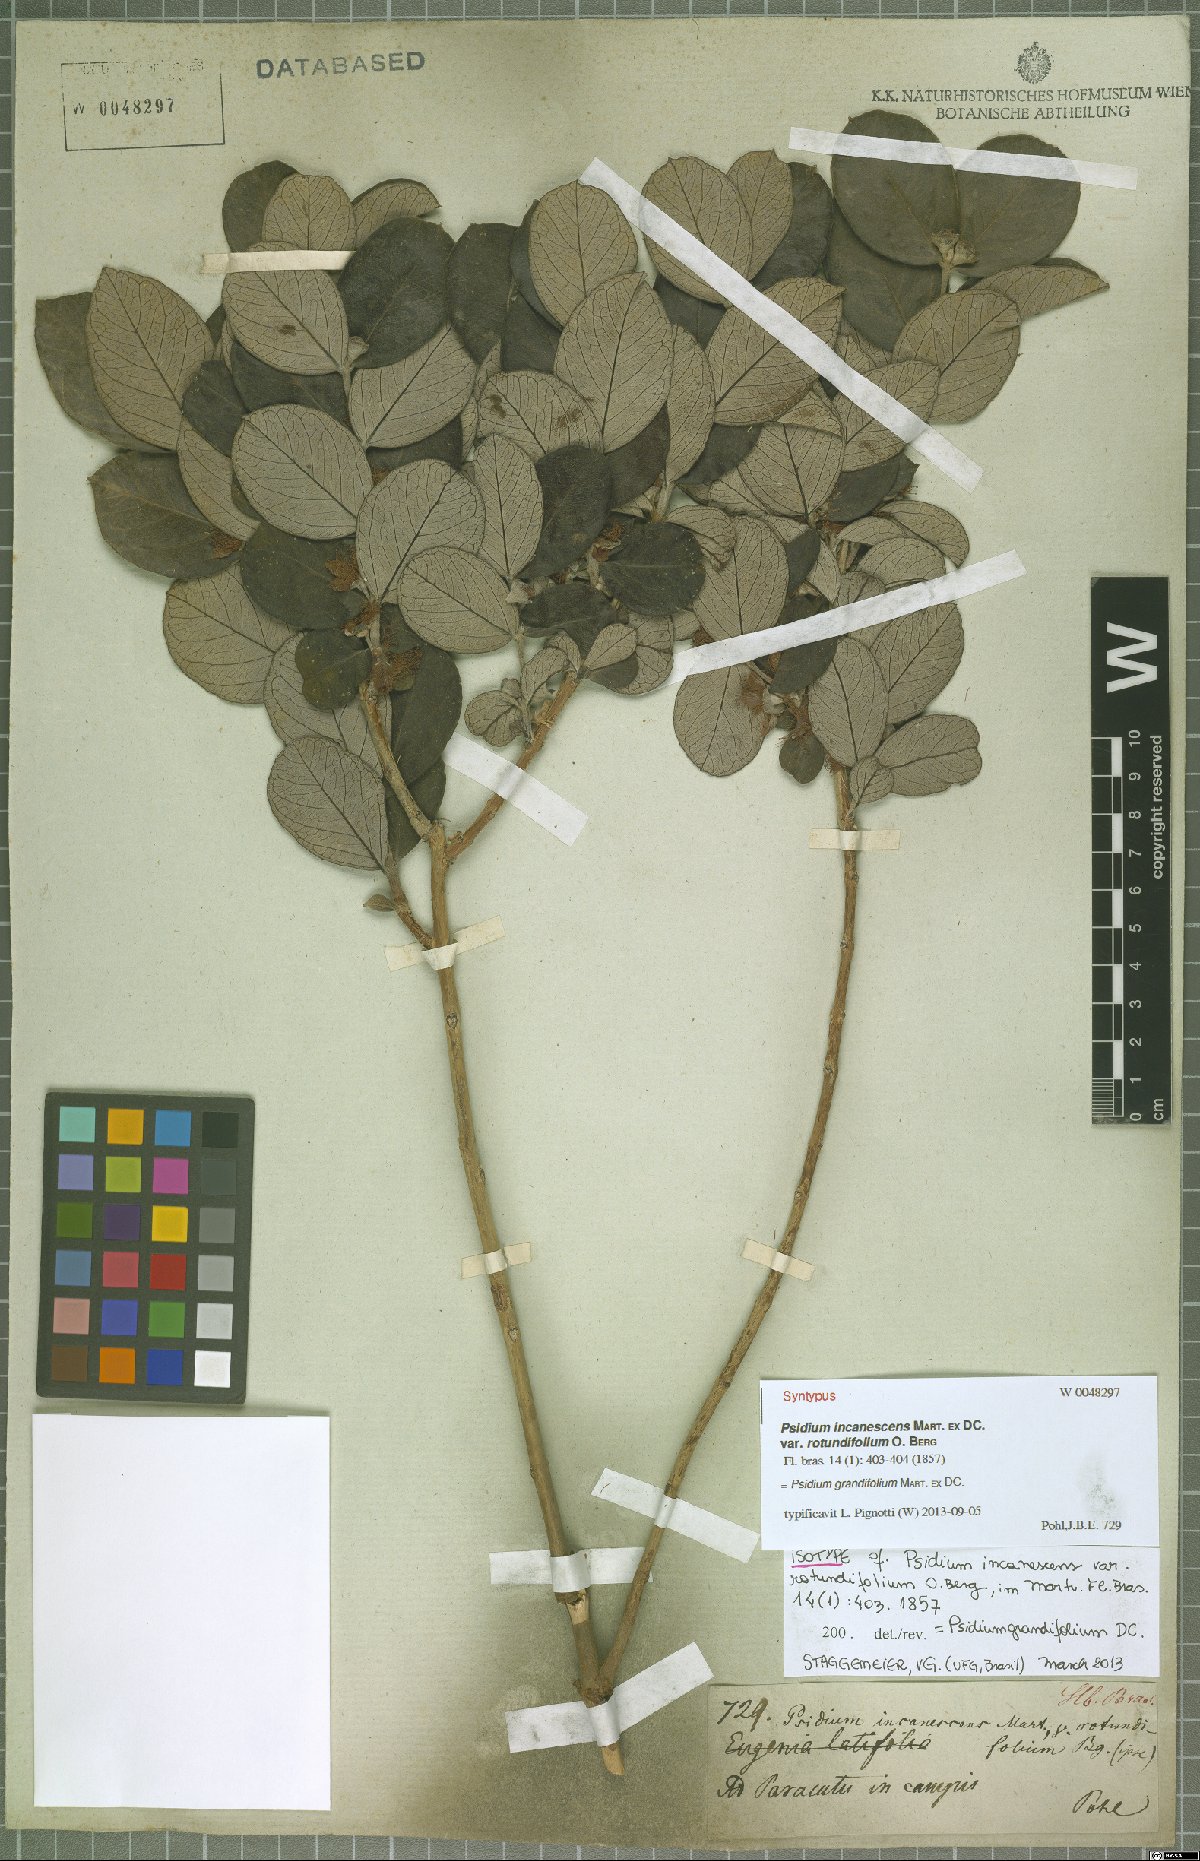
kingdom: Plantae
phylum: Tracheophyta
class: Magnoliopsida
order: Myrtales
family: Myrtaceae
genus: Psidium
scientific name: Psidium grandifolium
